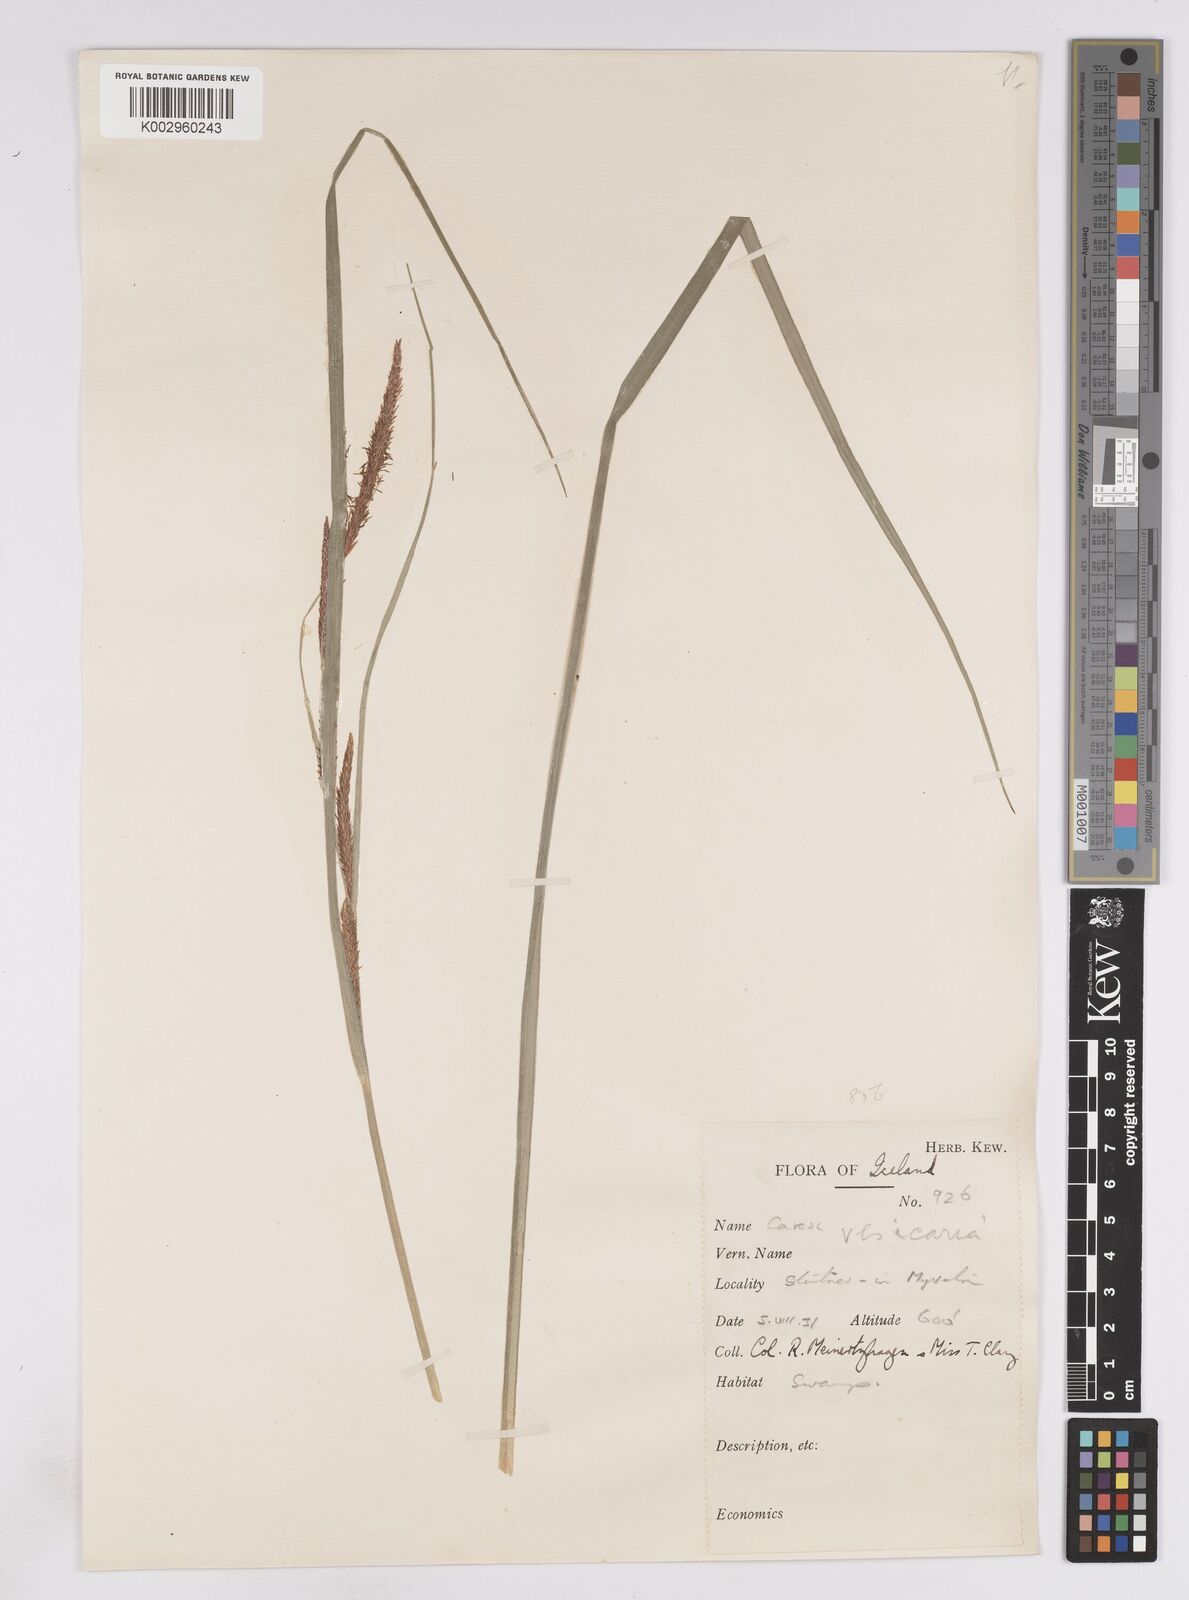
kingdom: Plantae
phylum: Tracheophyta
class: Liliopsida
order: Poales
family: Cyperaceae
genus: Carex
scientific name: Carex vesicaria
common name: Bladder-sedge
